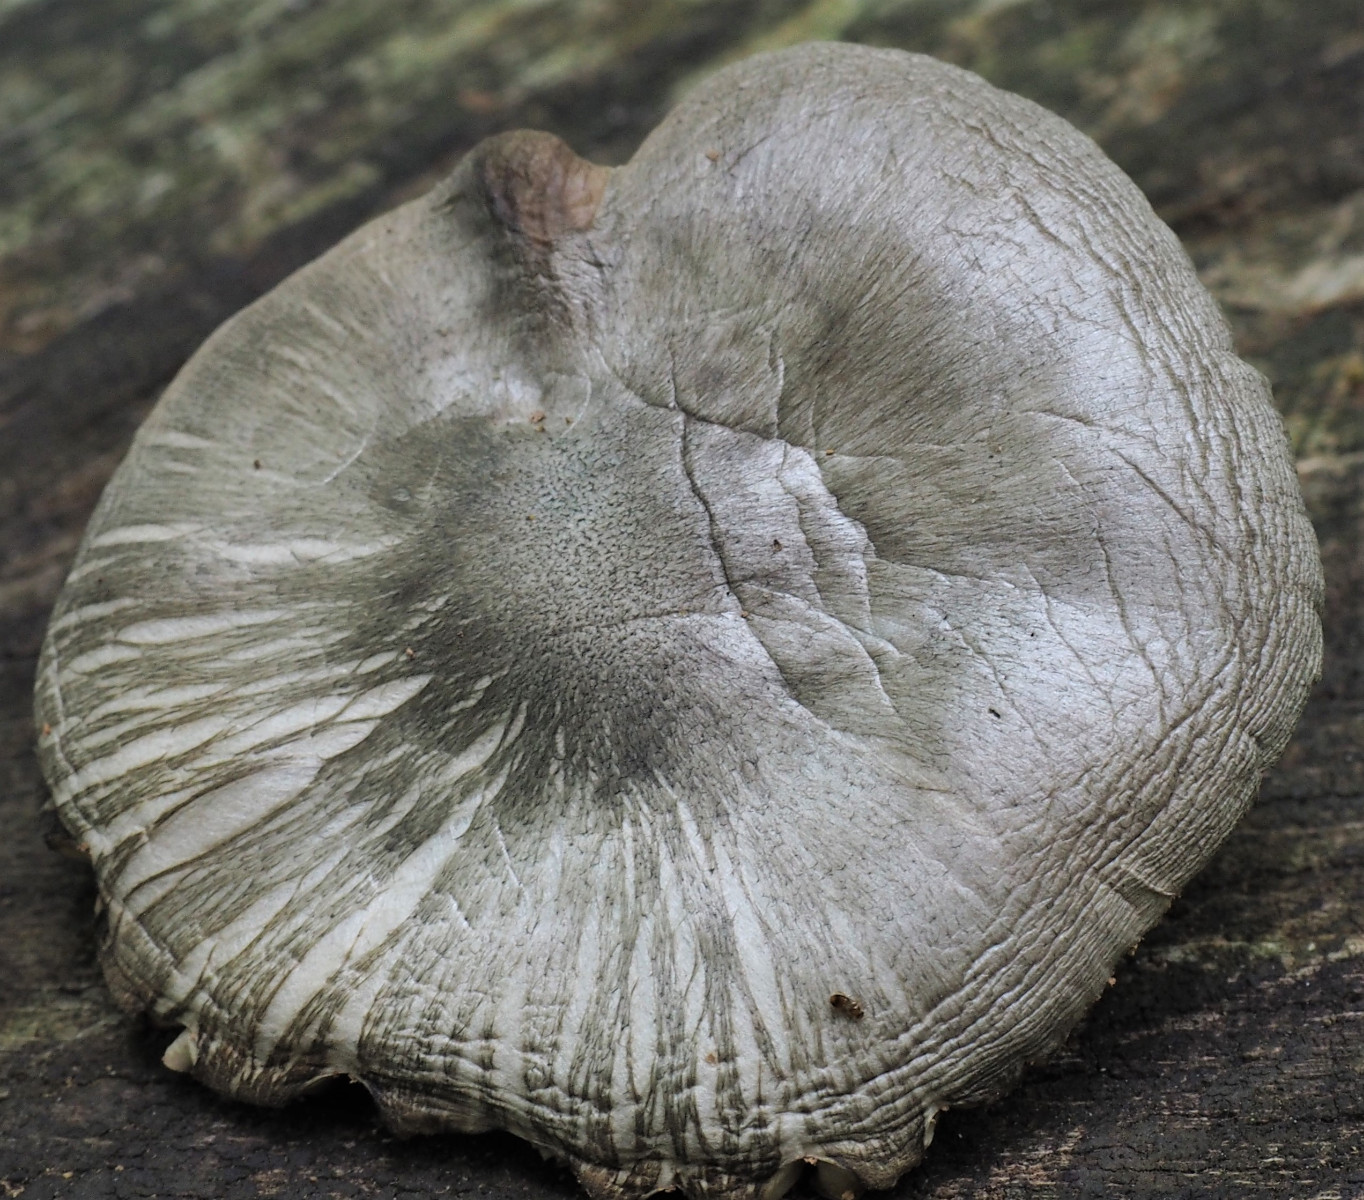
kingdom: Fungi
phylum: Basidiomycota
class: Agaricomycetes
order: Agaricales
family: Pluteaceae
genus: Pluteus
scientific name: Pluteus salicinus
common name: stiv skærmhat
